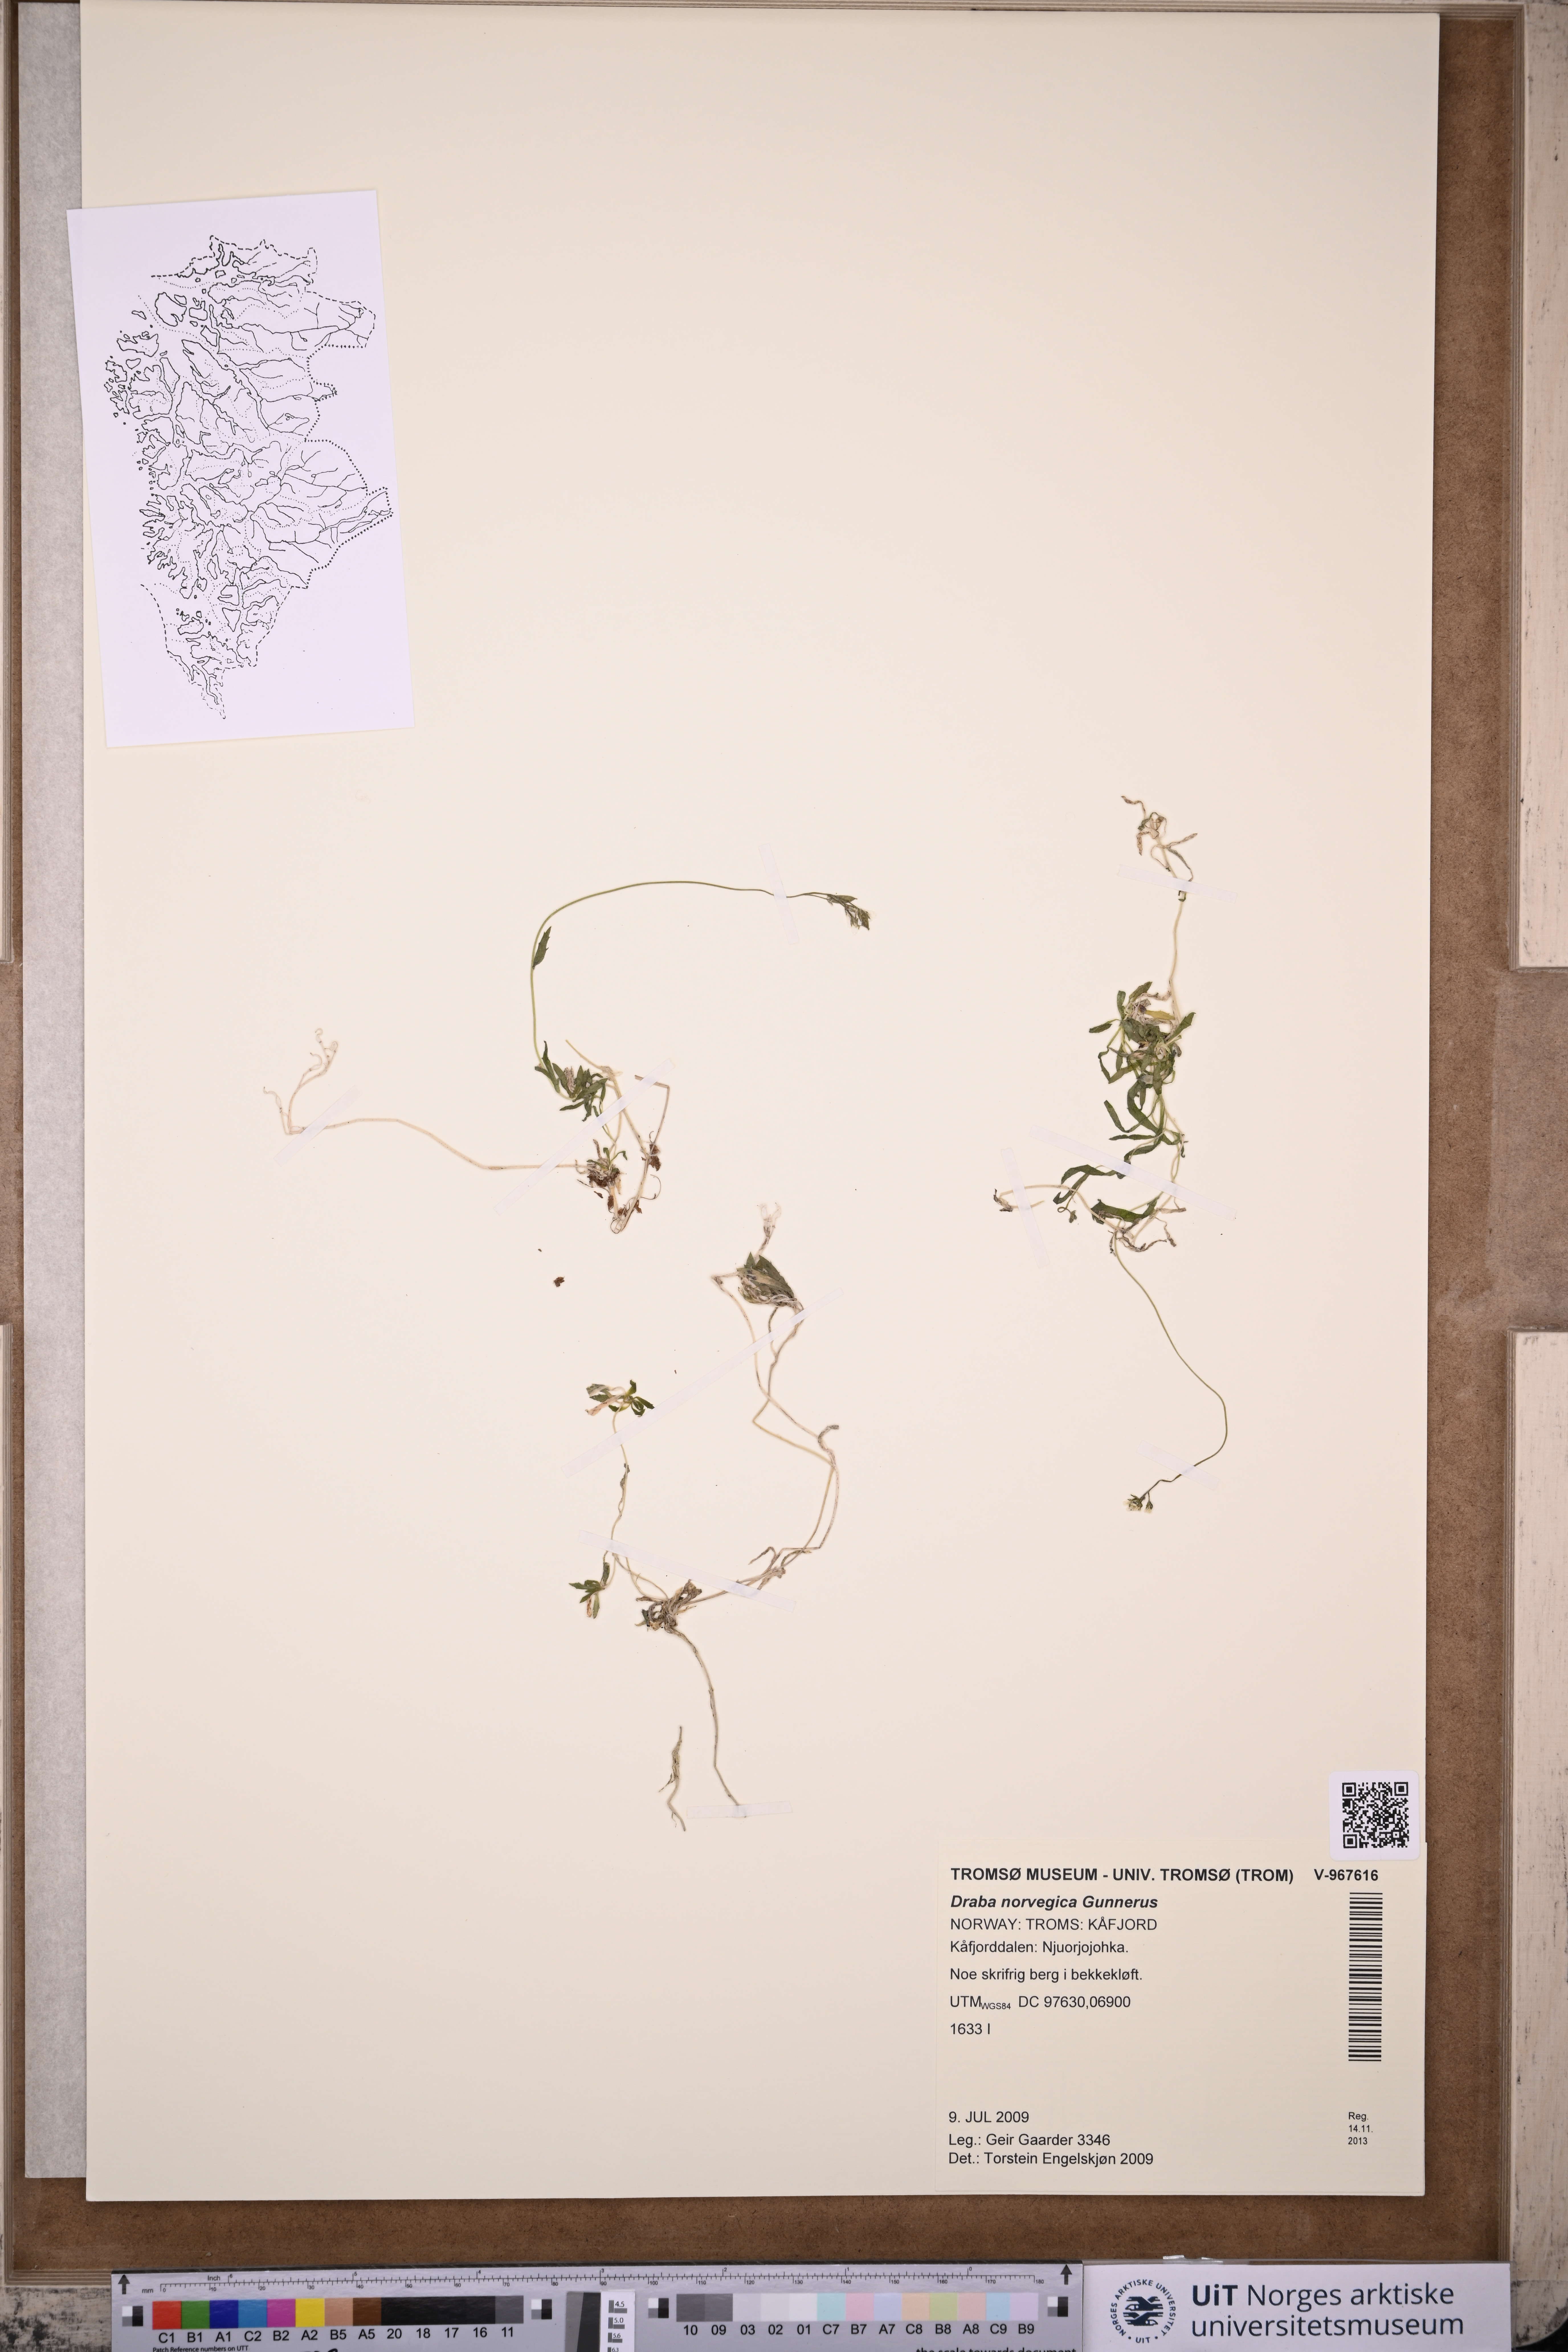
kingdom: Plantae
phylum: Tracheophyta
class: Magnoliopsida
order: Brassicales
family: Brassicaceae
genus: Draba
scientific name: Draba norvegica
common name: Rock whitlowgrass
